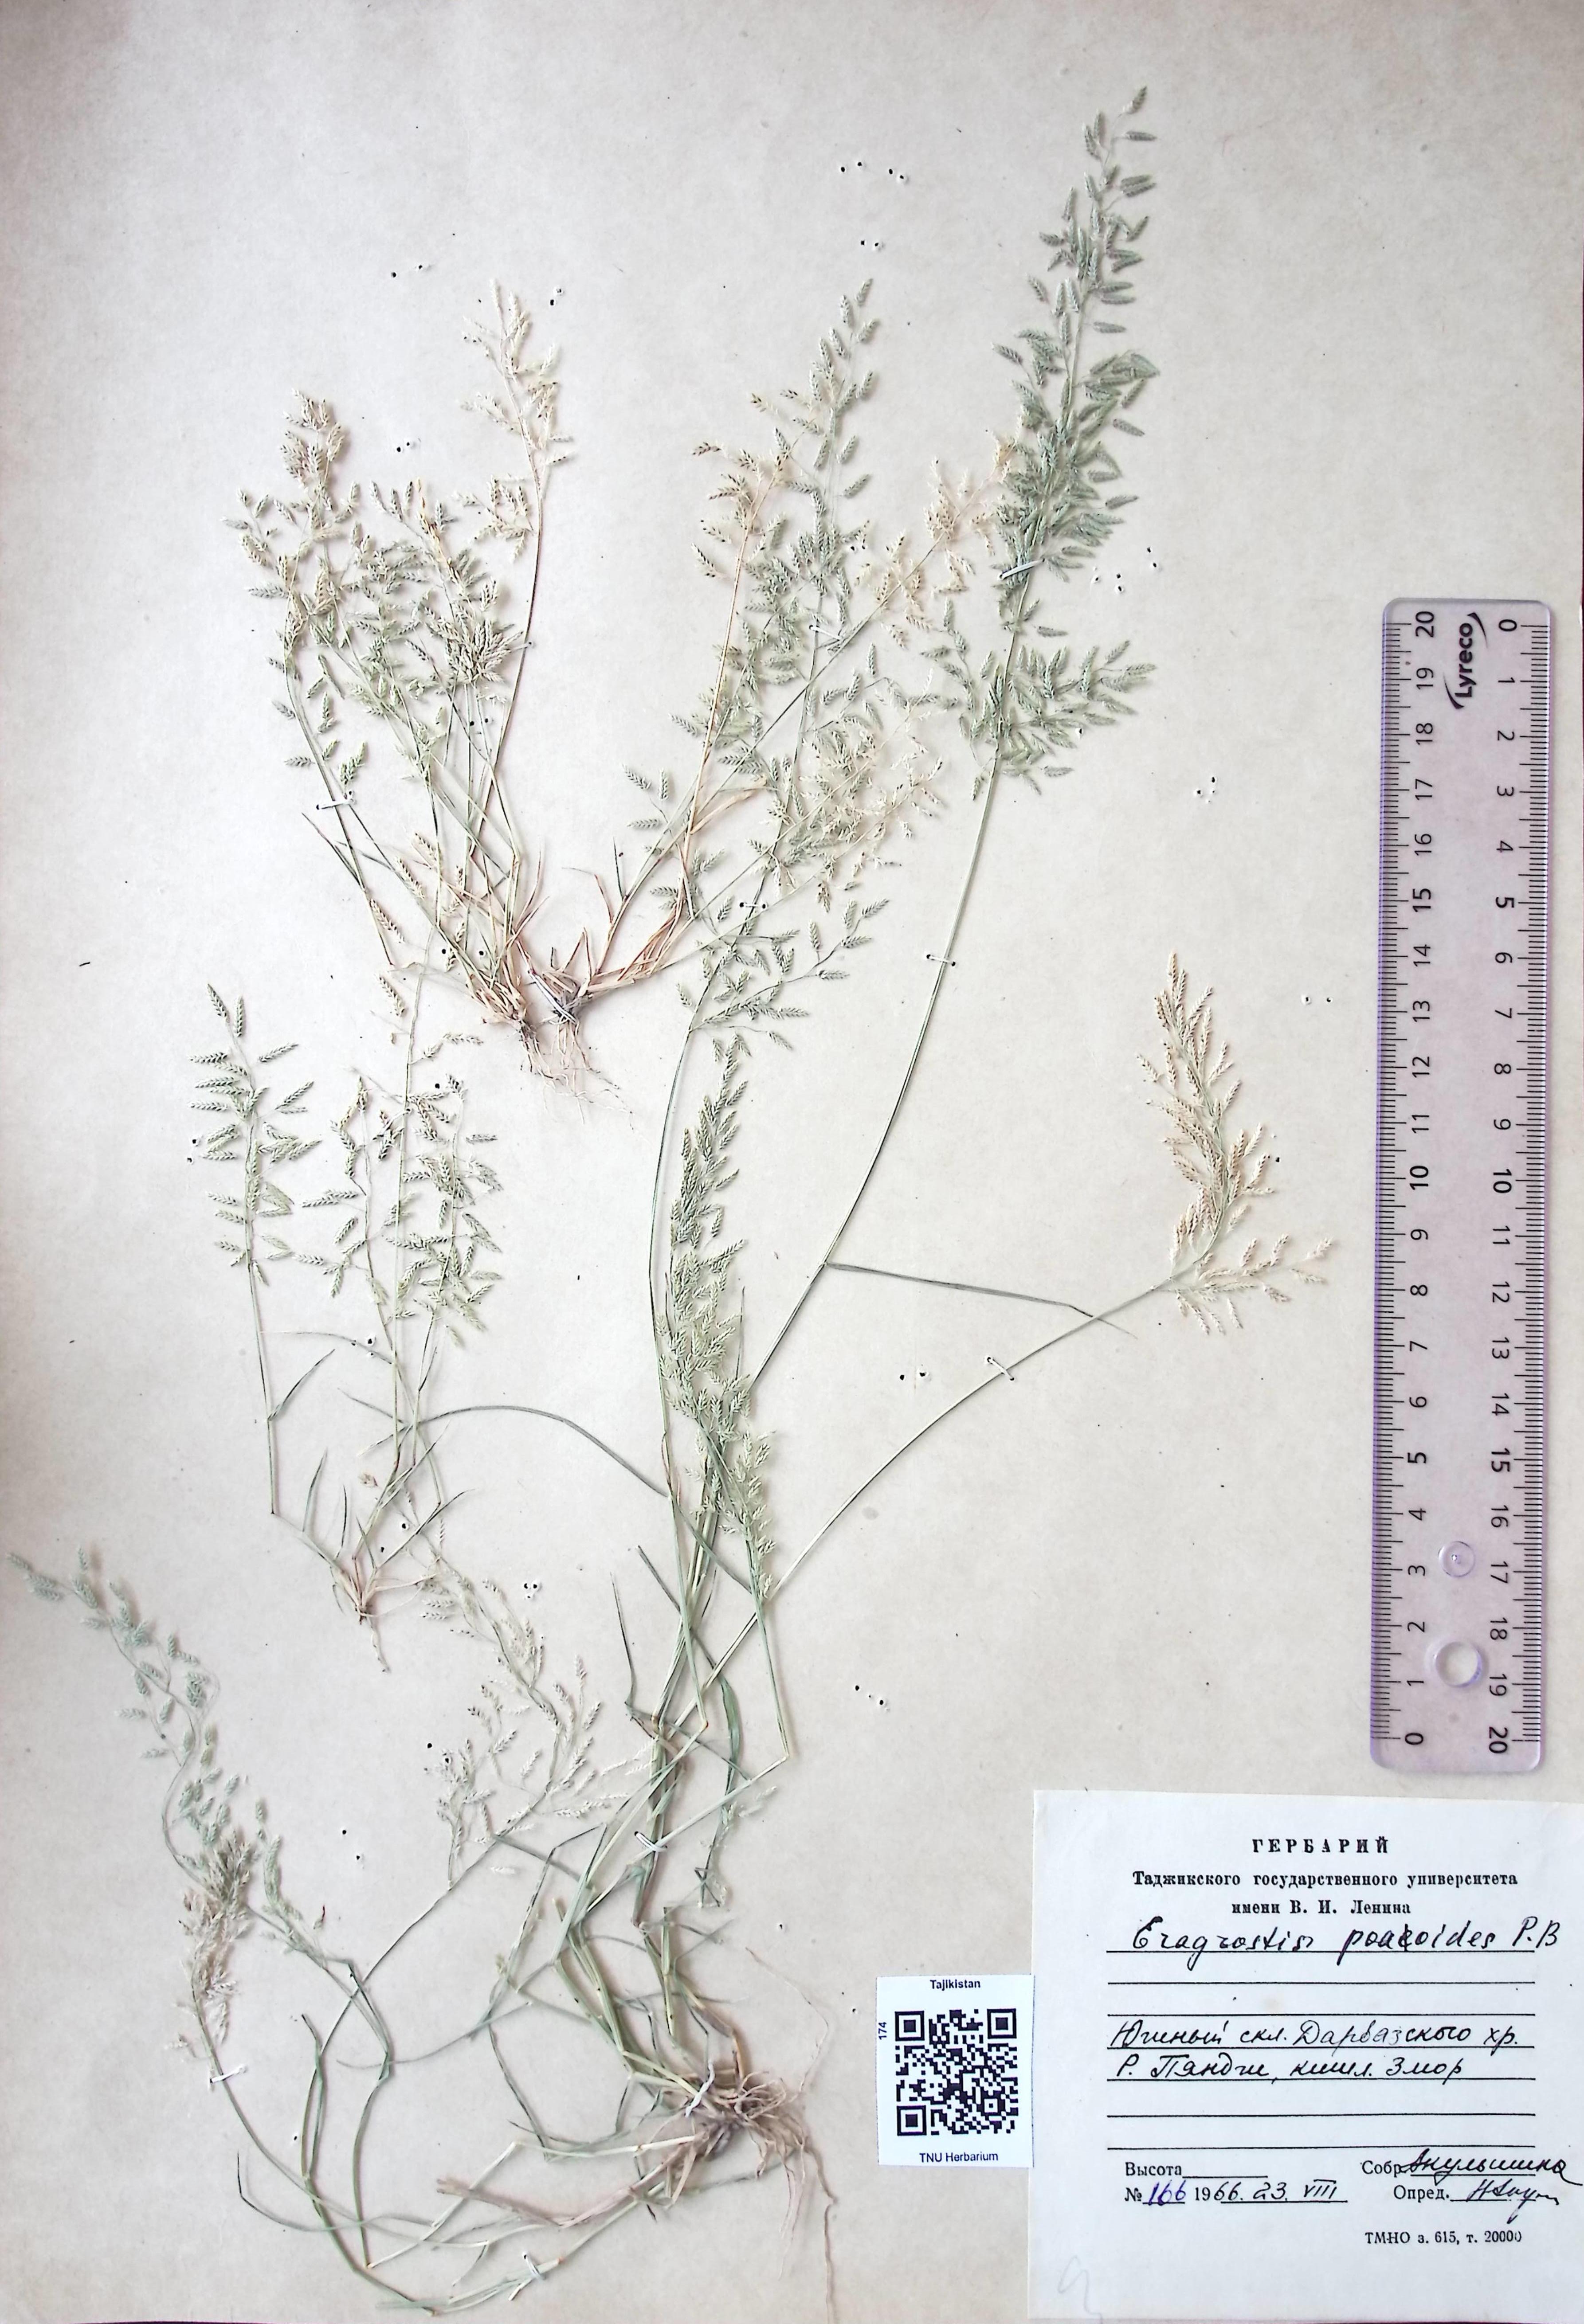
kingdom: Plantae
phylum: Tracheophyta
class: Liliopsida
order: Poales
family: Poaceae
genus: Eragrostis
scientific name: Eragrostis poaoides
